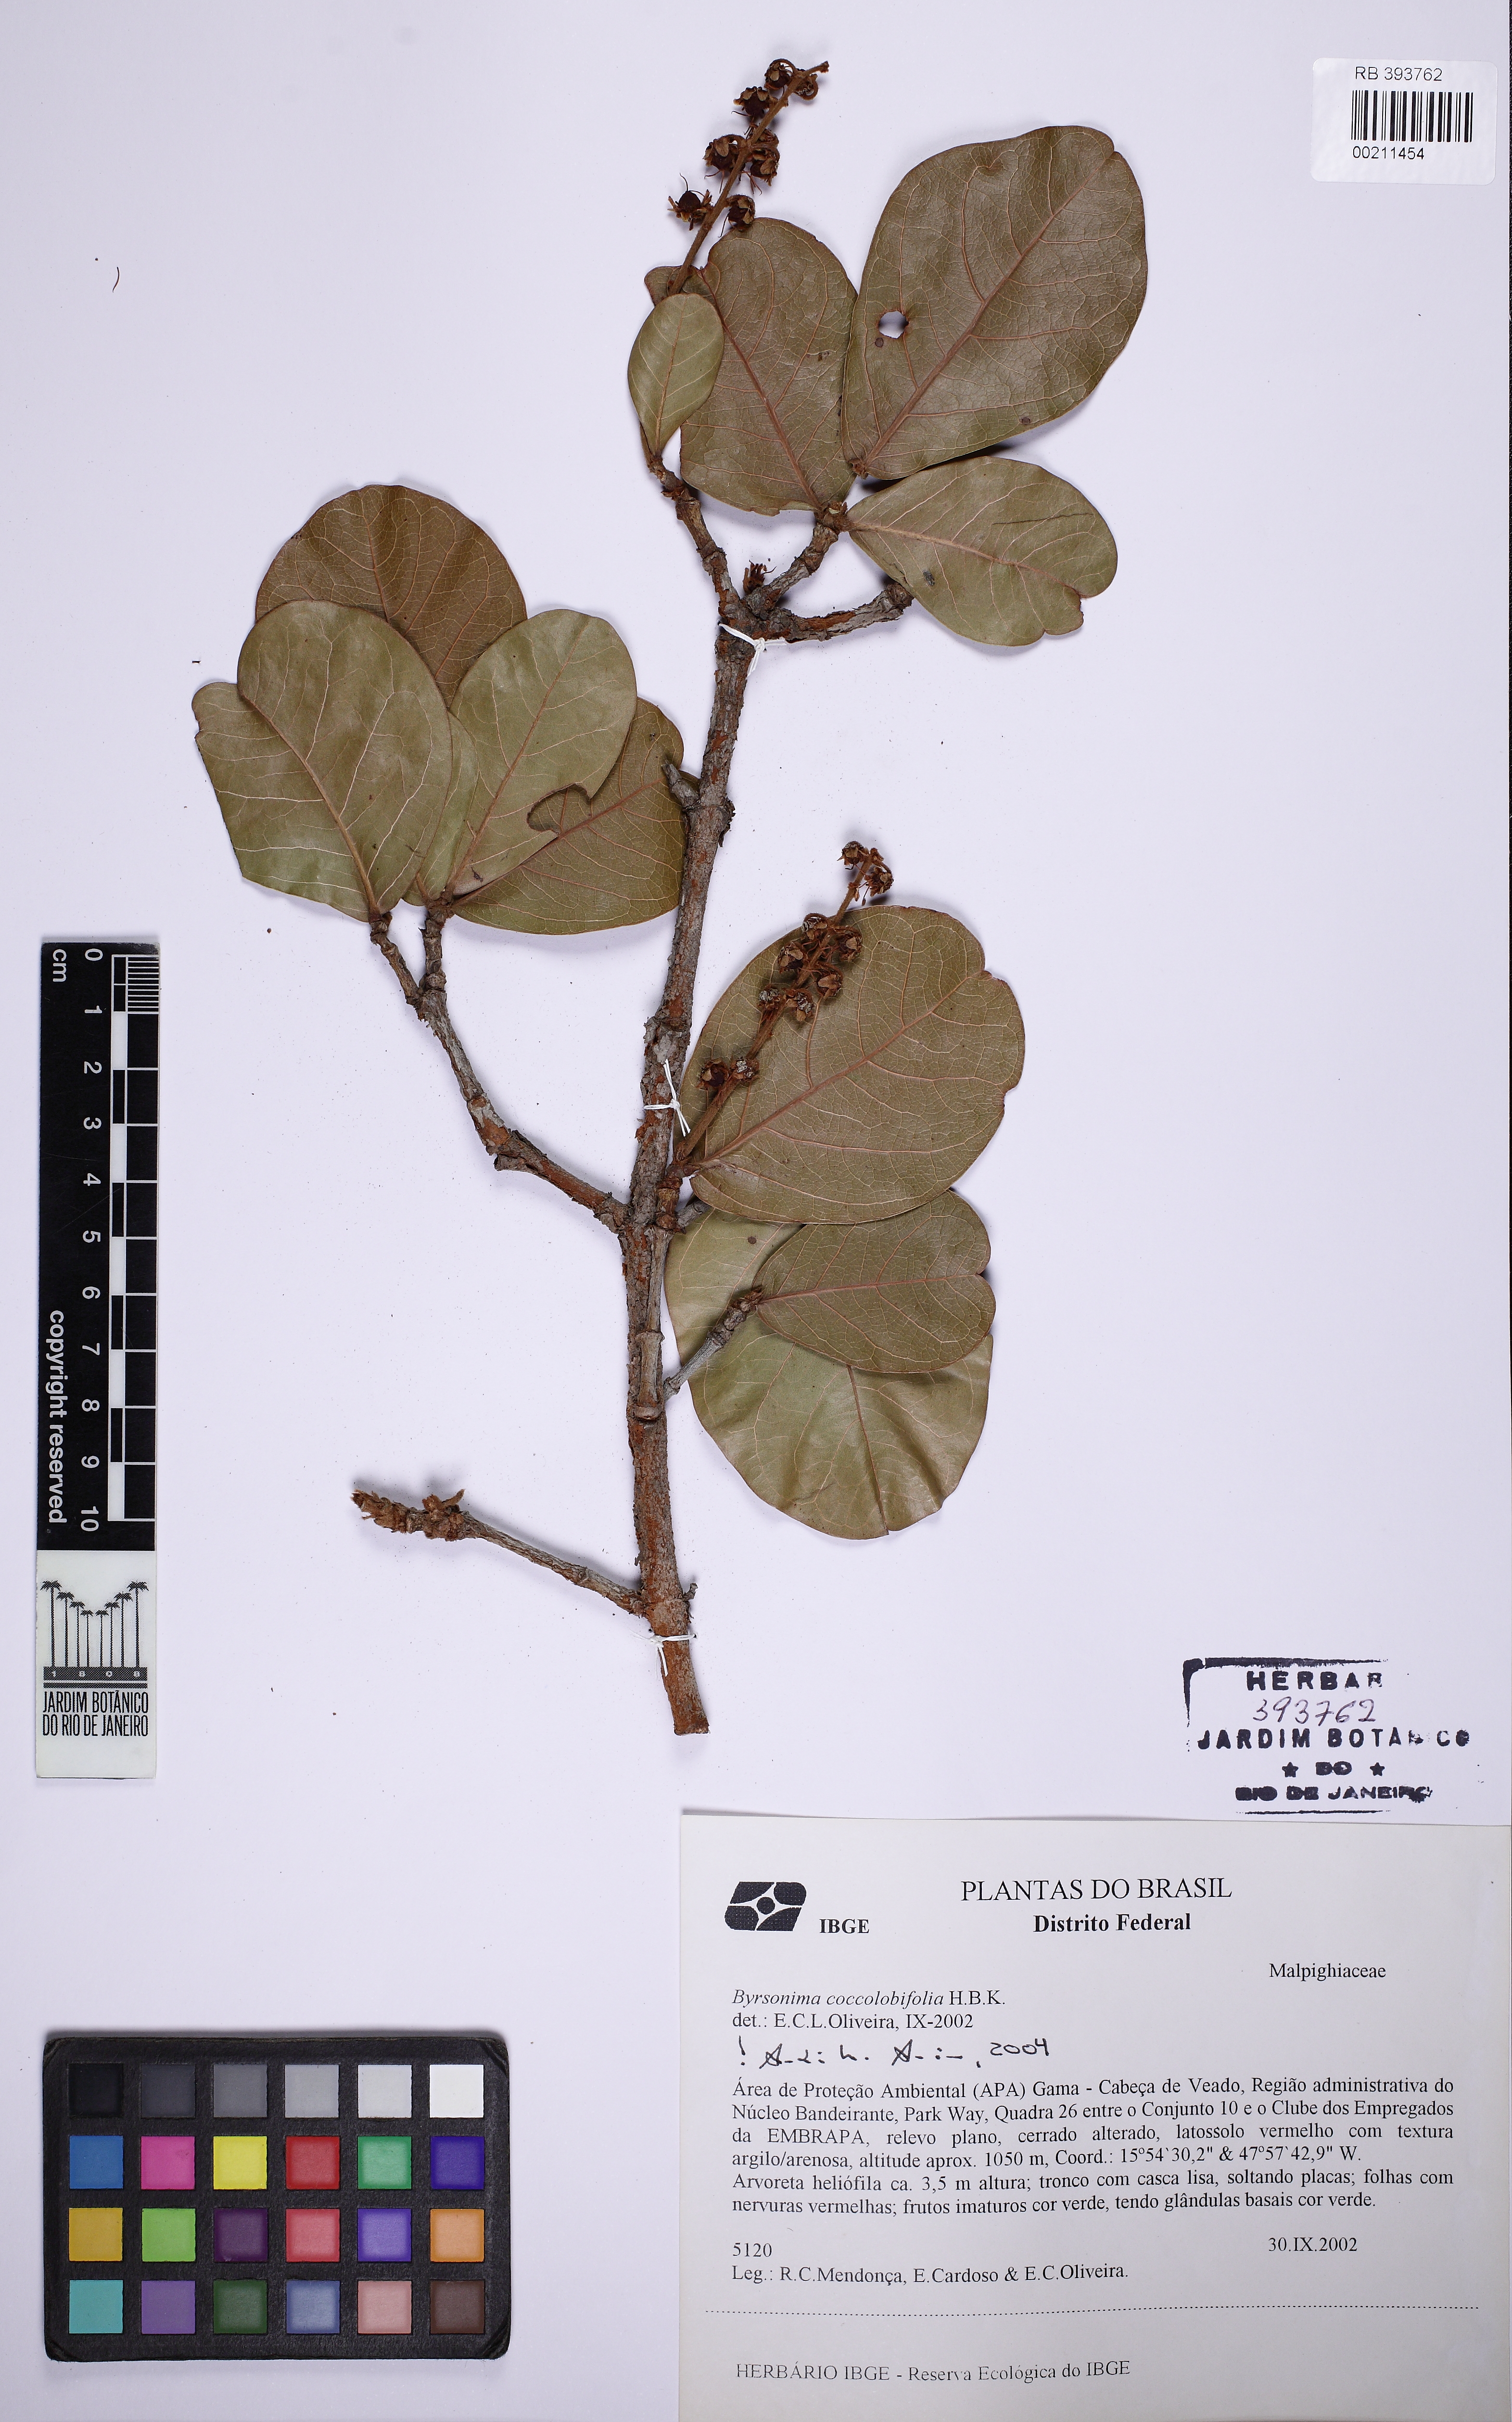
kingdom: Plantae
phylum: Tracheophyta
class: Magnoliopsida
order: Malpighiales
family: Malpighiaceae
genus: Byrsonima
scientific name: Byrsonima coccolobifolia
